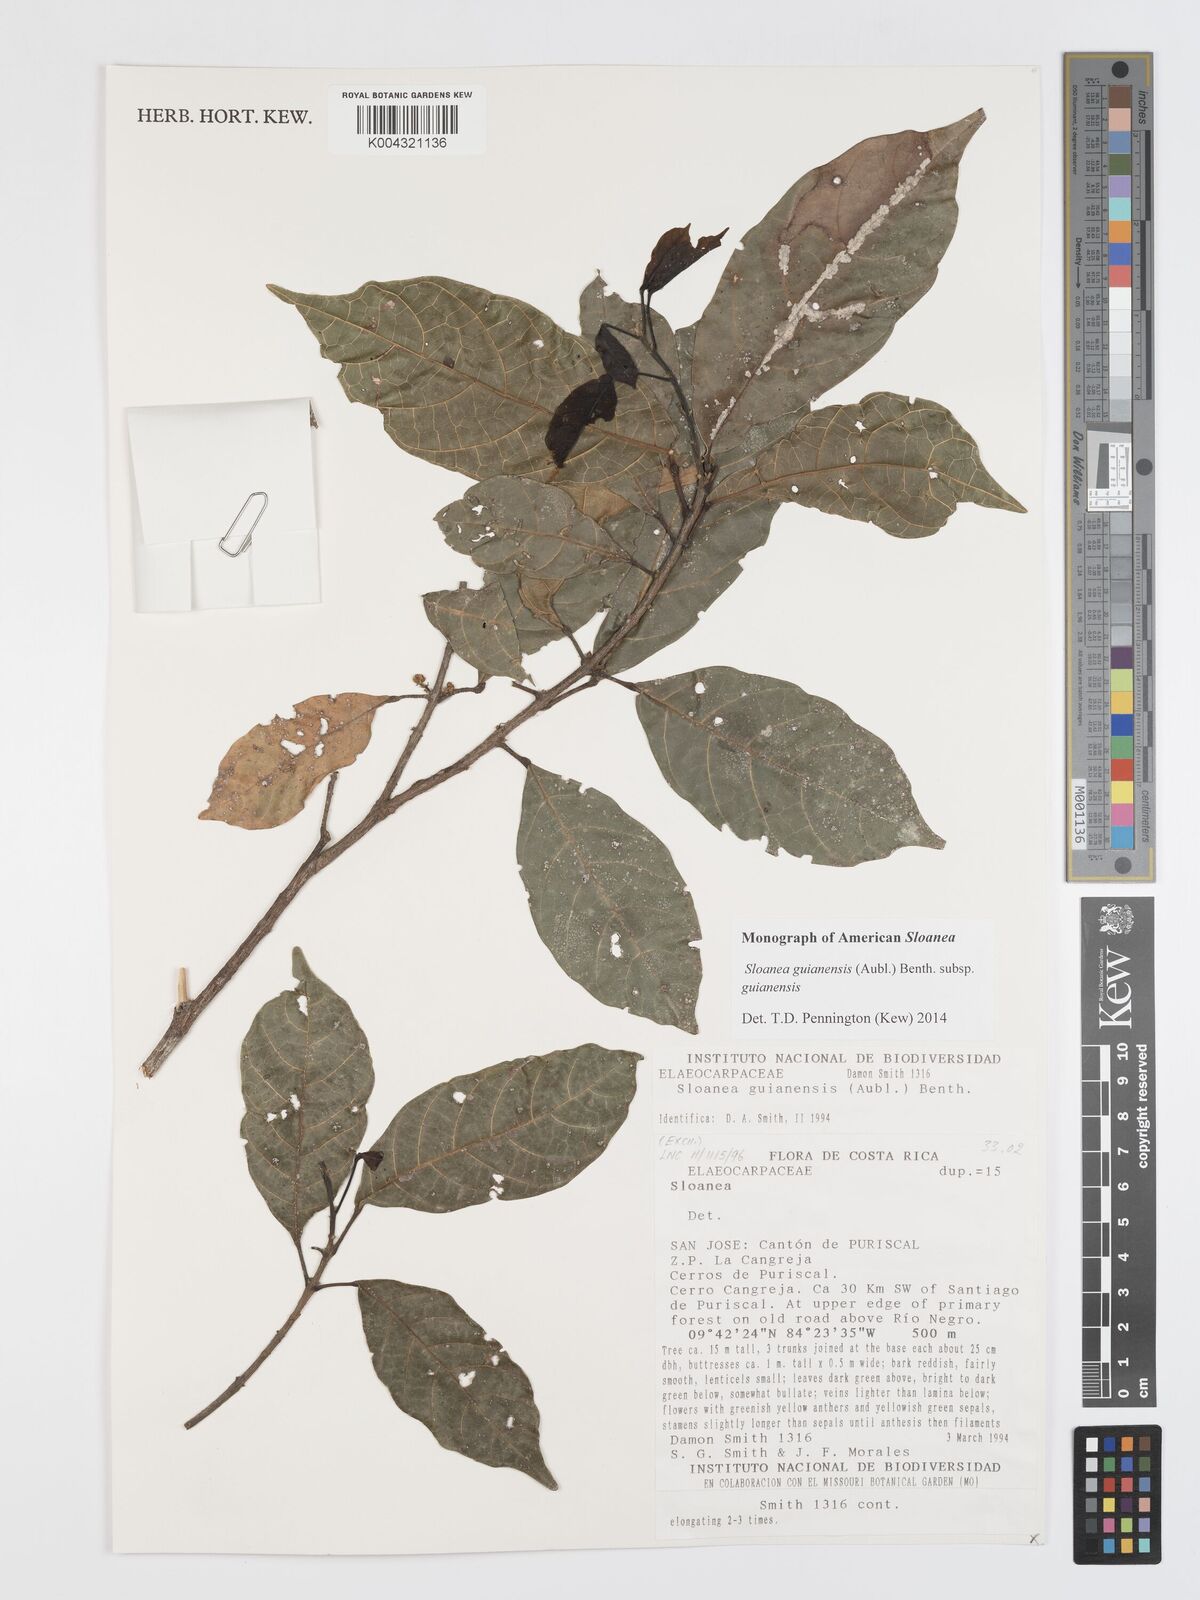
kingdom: Plantae
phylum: Tracheophyta
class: Magnoliopsida
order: Oxalidales
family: Elaeocarpaceae
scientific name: Elaeocarpaceae
